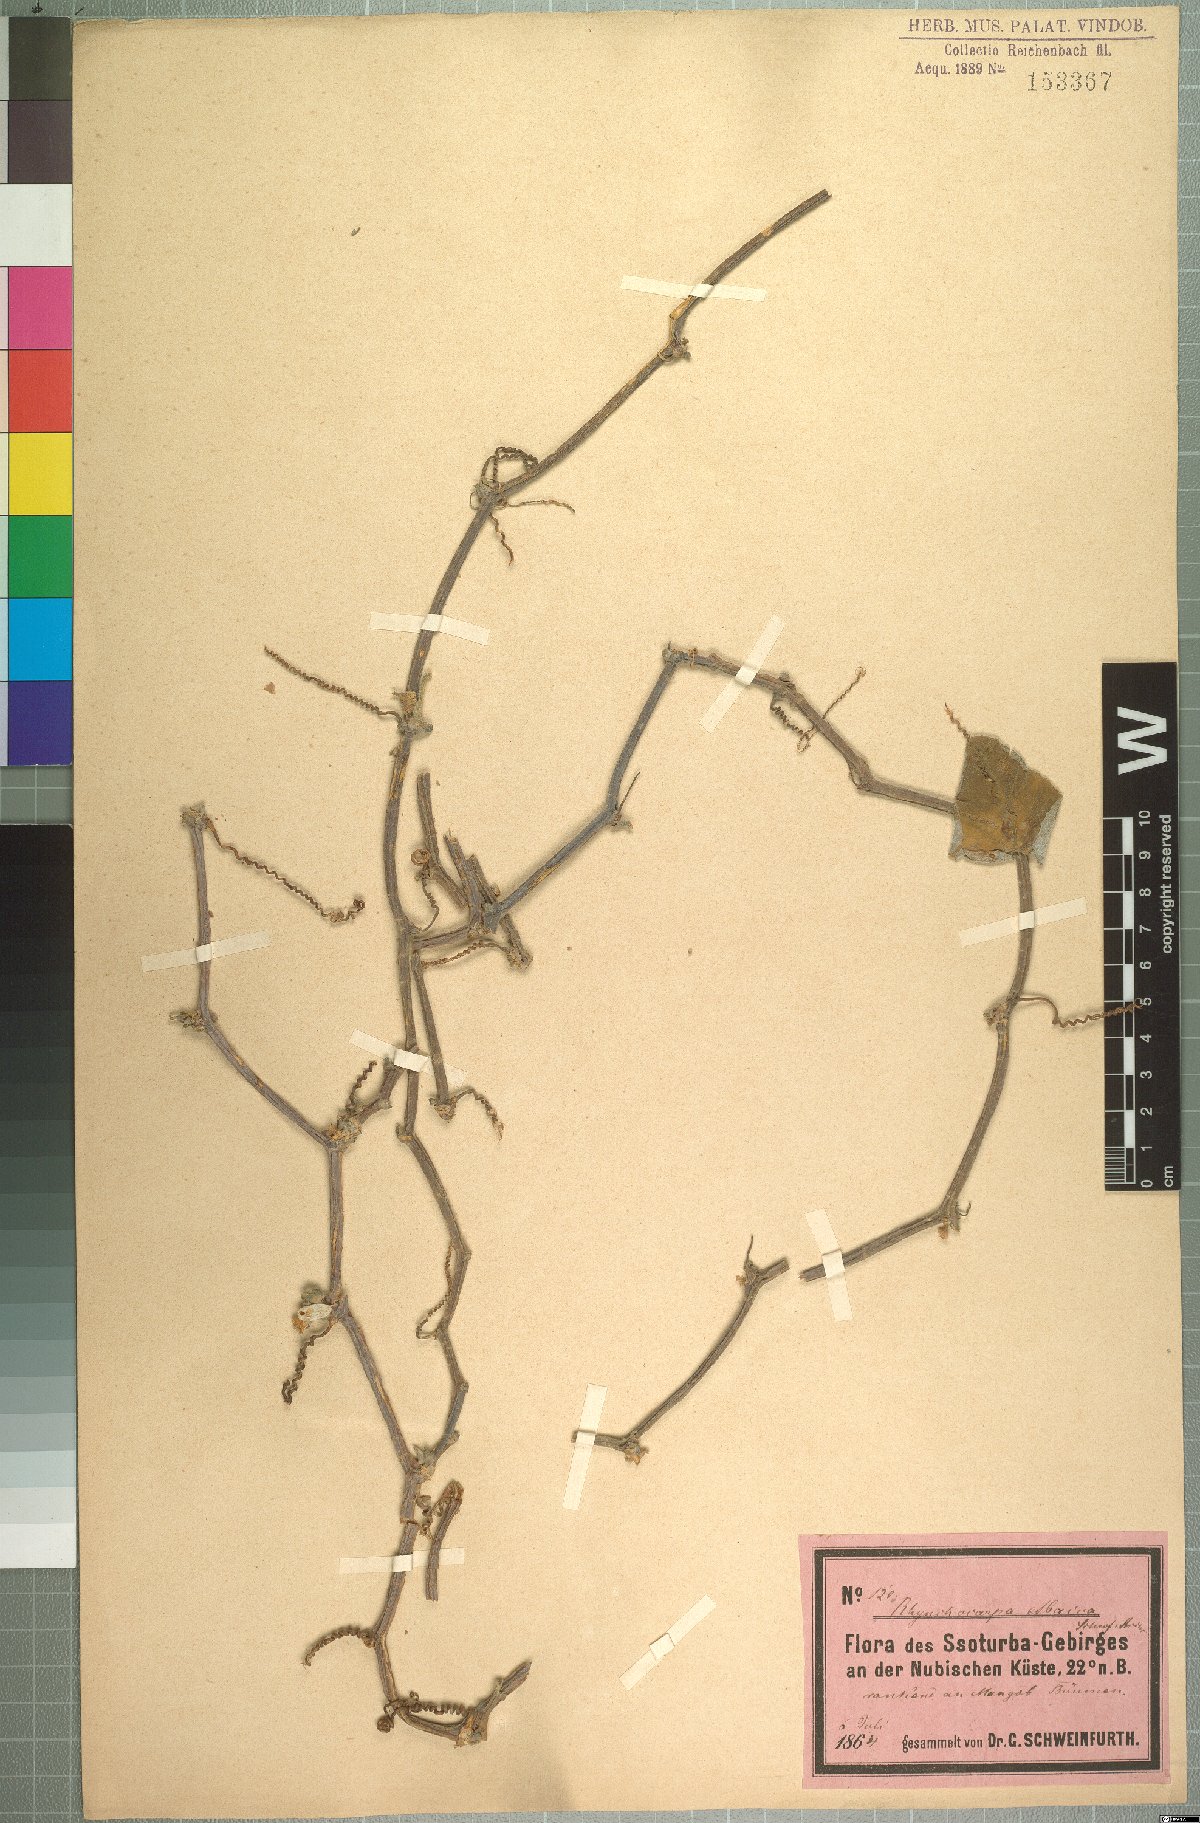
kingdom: Plantae
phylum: Tracheophyta
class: Magnoliopsida
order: Cucurbitales
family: Cucurbitaceae
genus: Corallocarpus
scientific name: Corallocarpus schimperi
